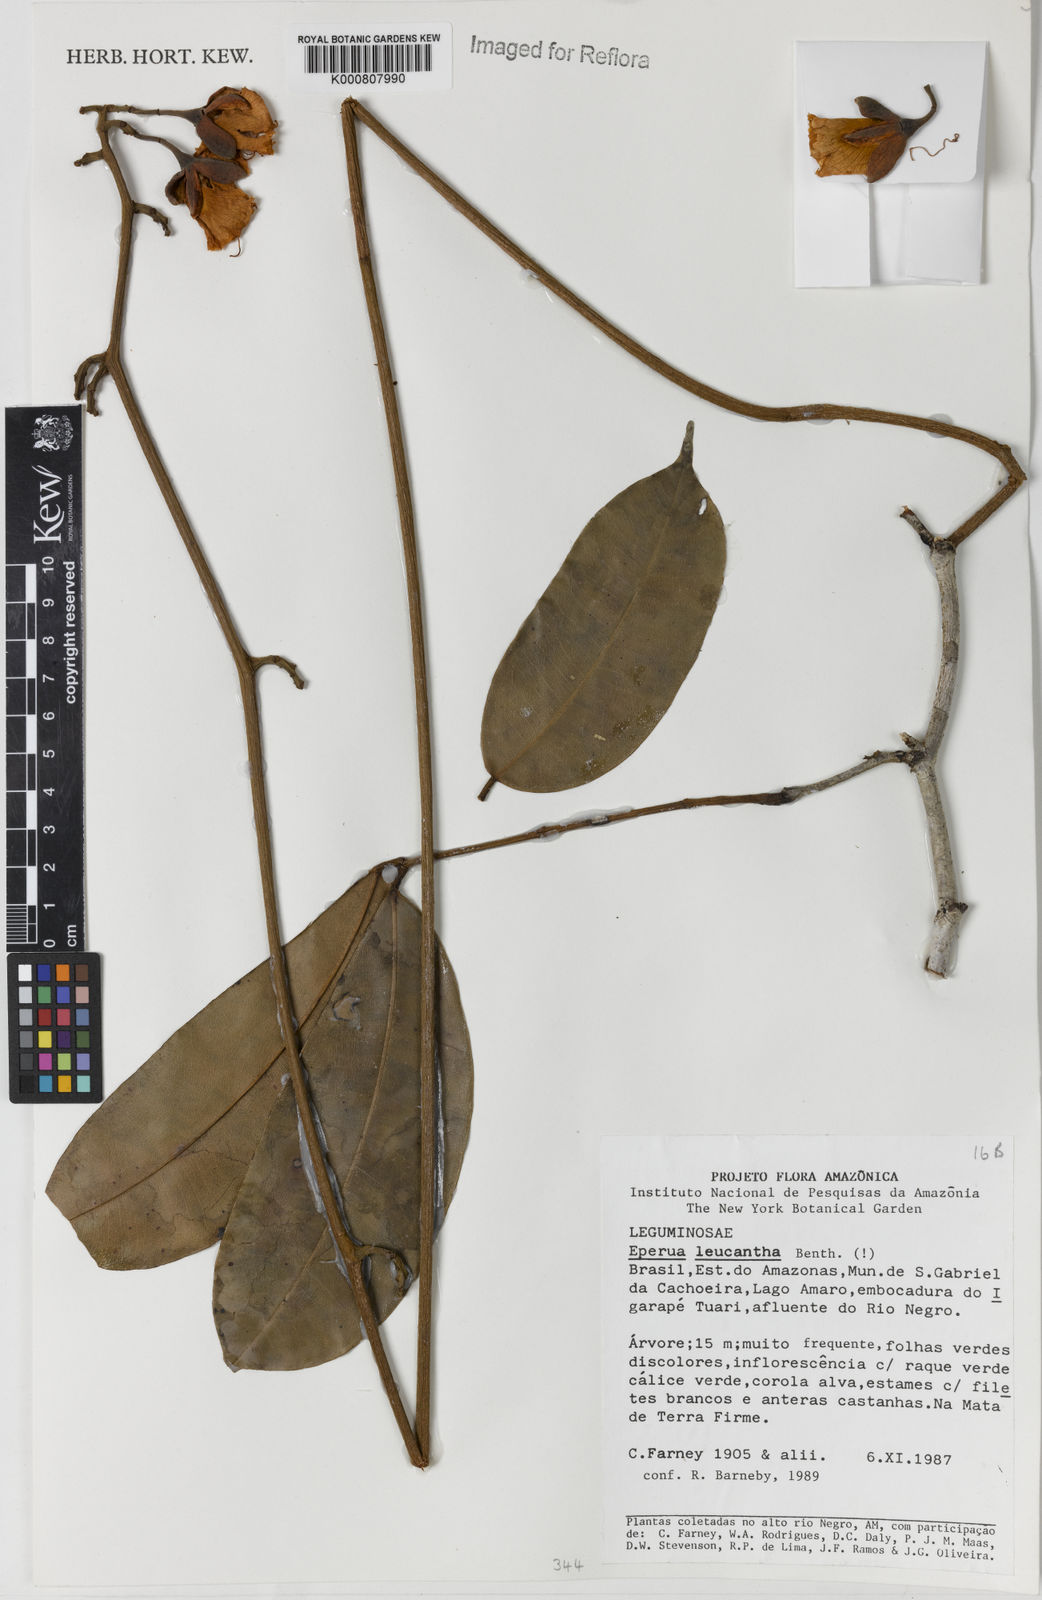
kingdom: Plantae
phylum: Tracheophyta
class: Magnoliopsida
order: Fabales
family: Fabaceae
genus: Eperua
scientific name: Eperua leucantha
